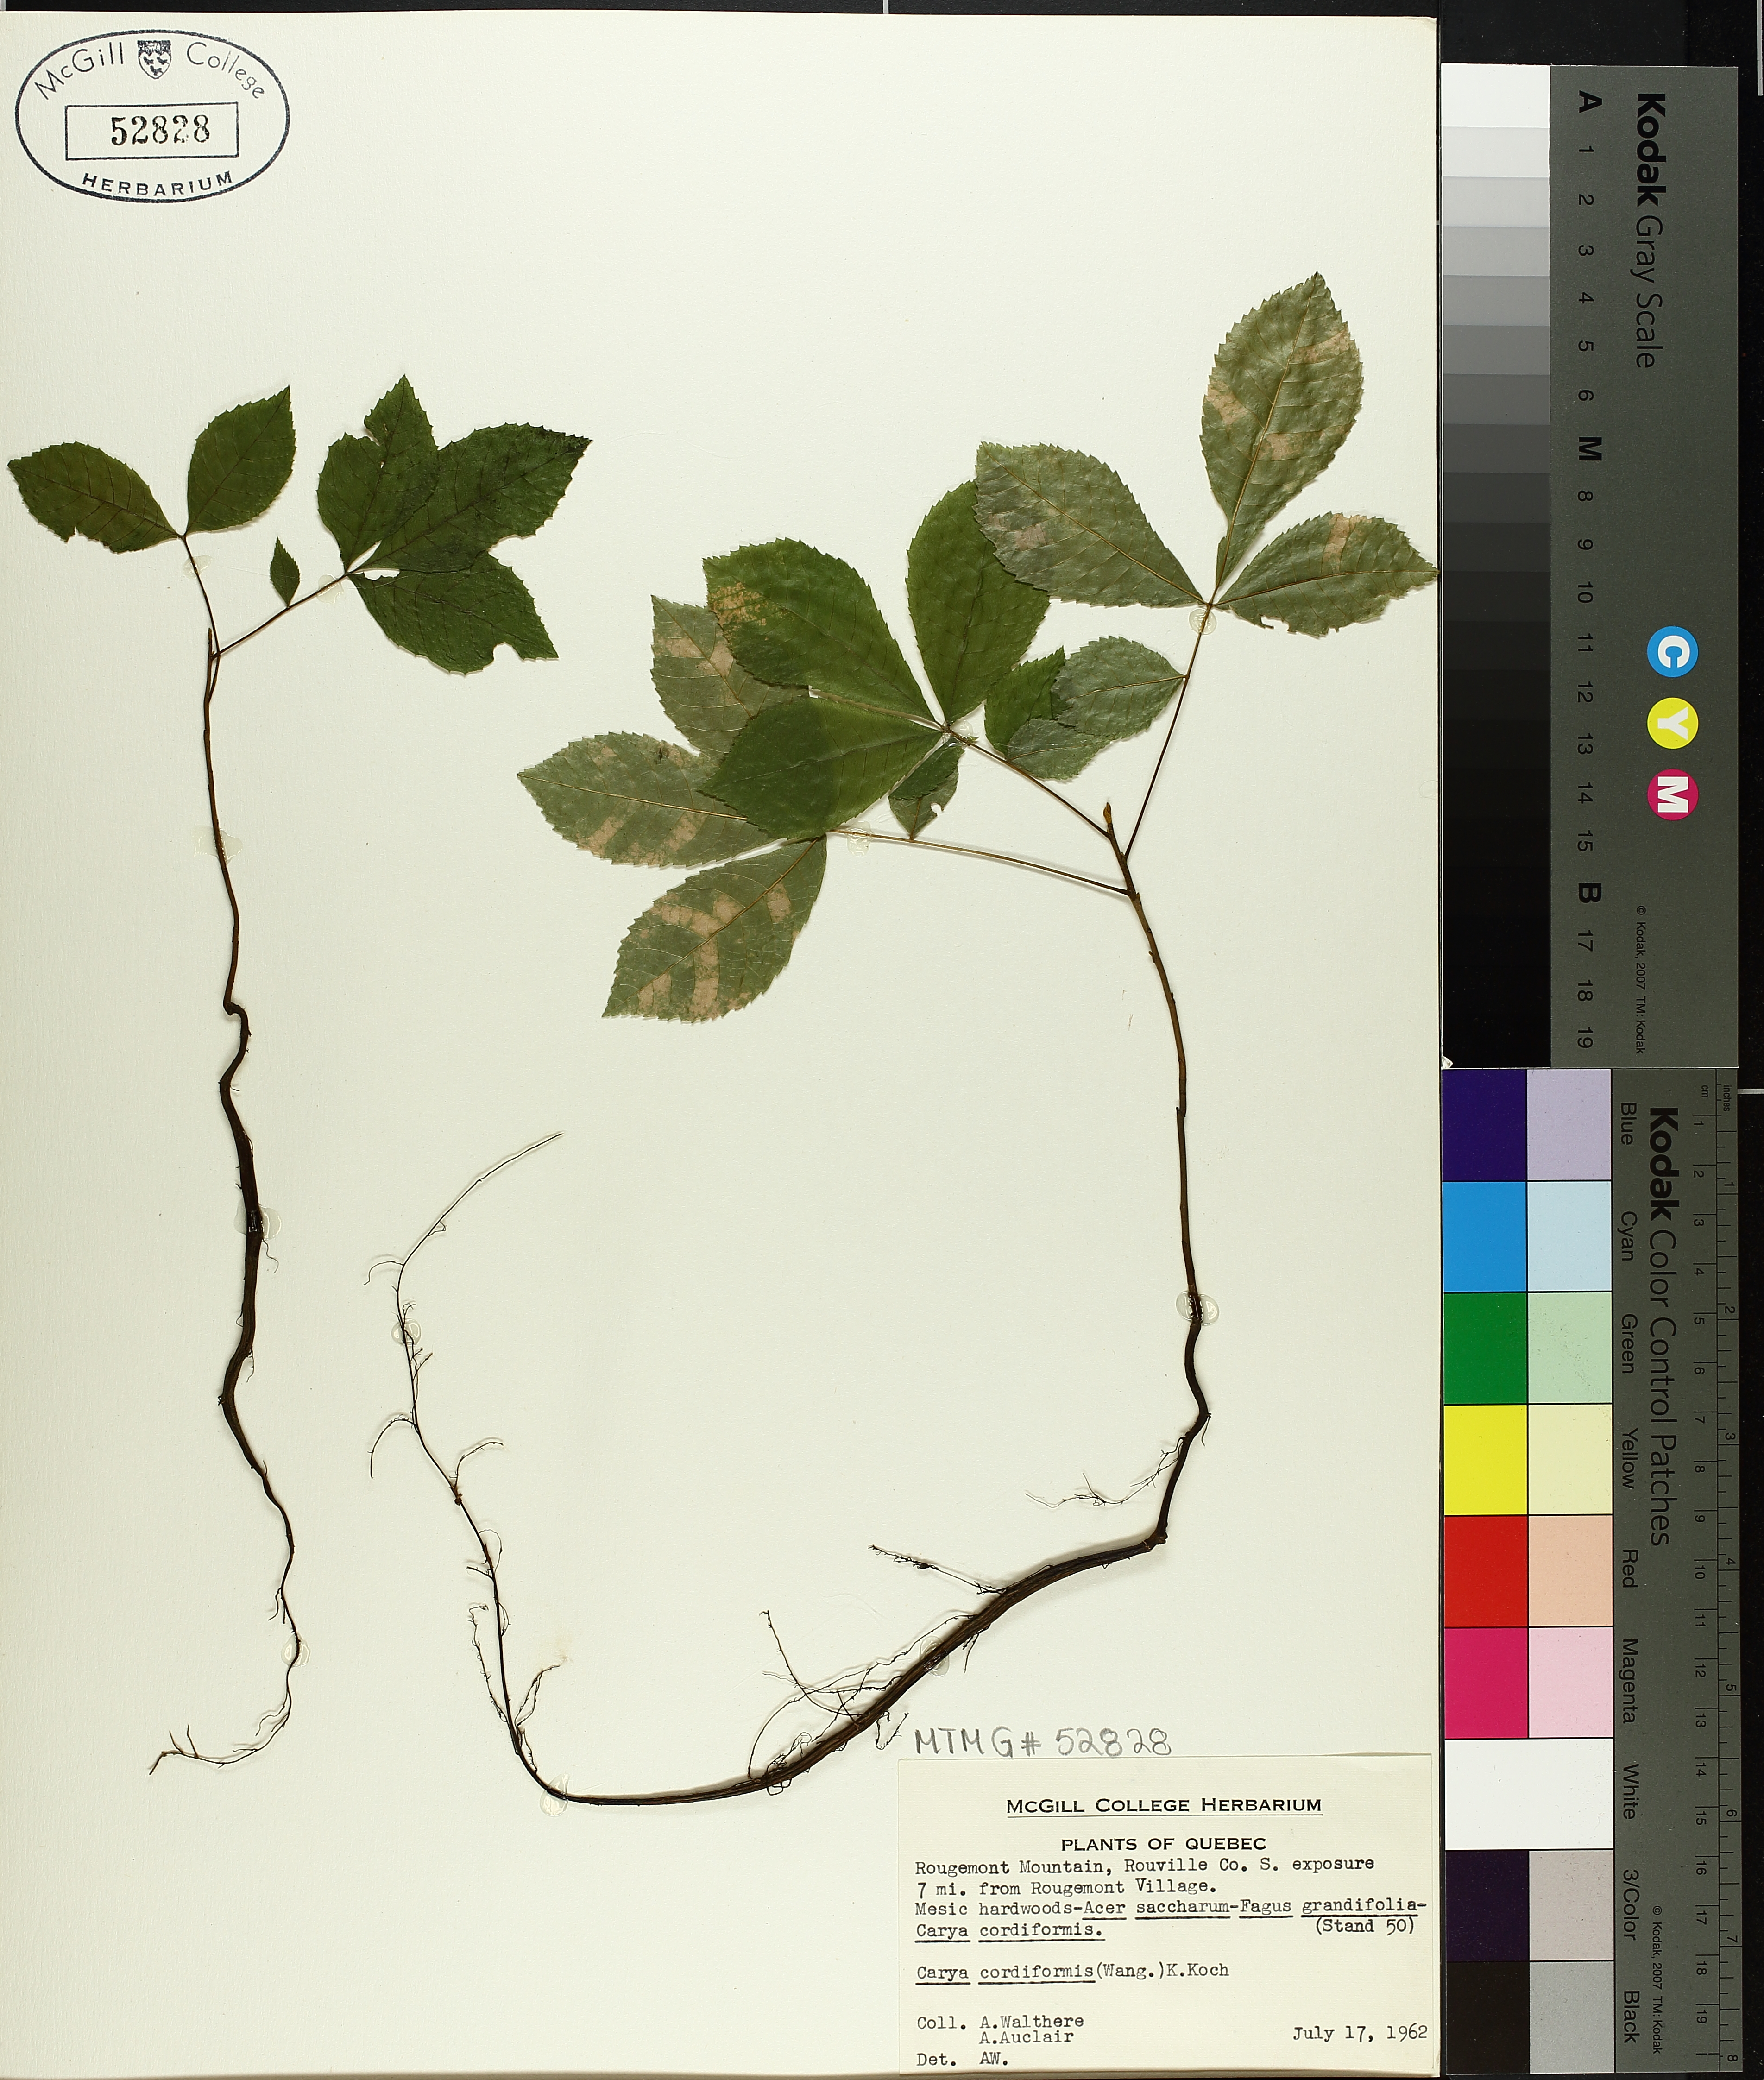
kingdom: Plantae
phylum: Tracheophyta
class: Magnoliopsida
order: Fagales
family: Juglandaceae
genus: Carya
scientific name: Carya cordiformis
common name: Bitternut hickory
